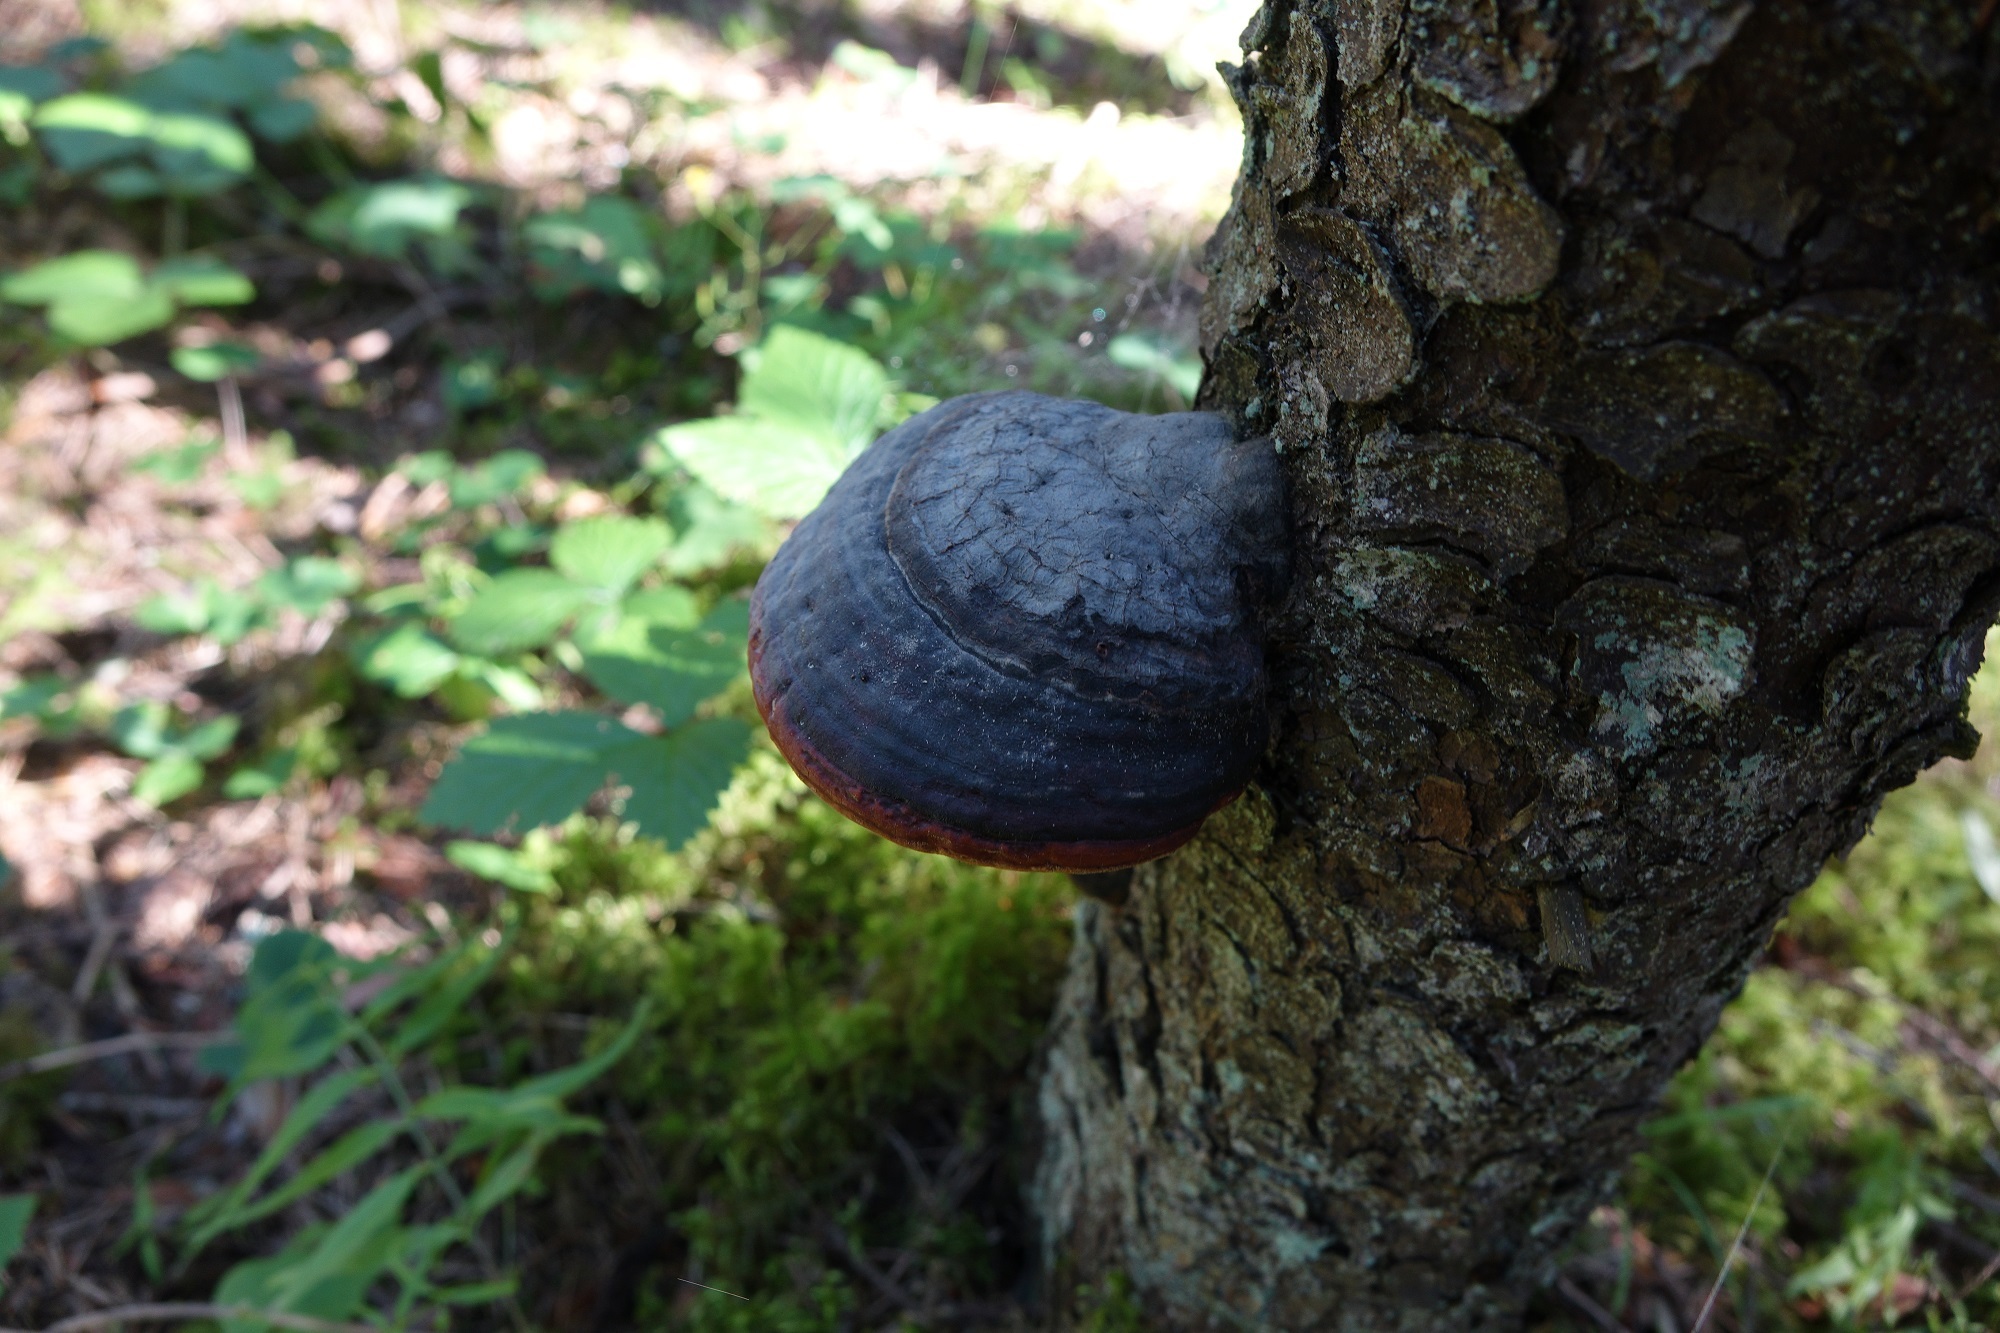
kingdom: Fungi
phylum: Basidiomycota
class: Agaricomycetes
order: Polyporales
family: Fomitopsidaceae
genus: Fomitopsis
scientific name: Fomitopsis pinicola
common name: Red-belted bracket
